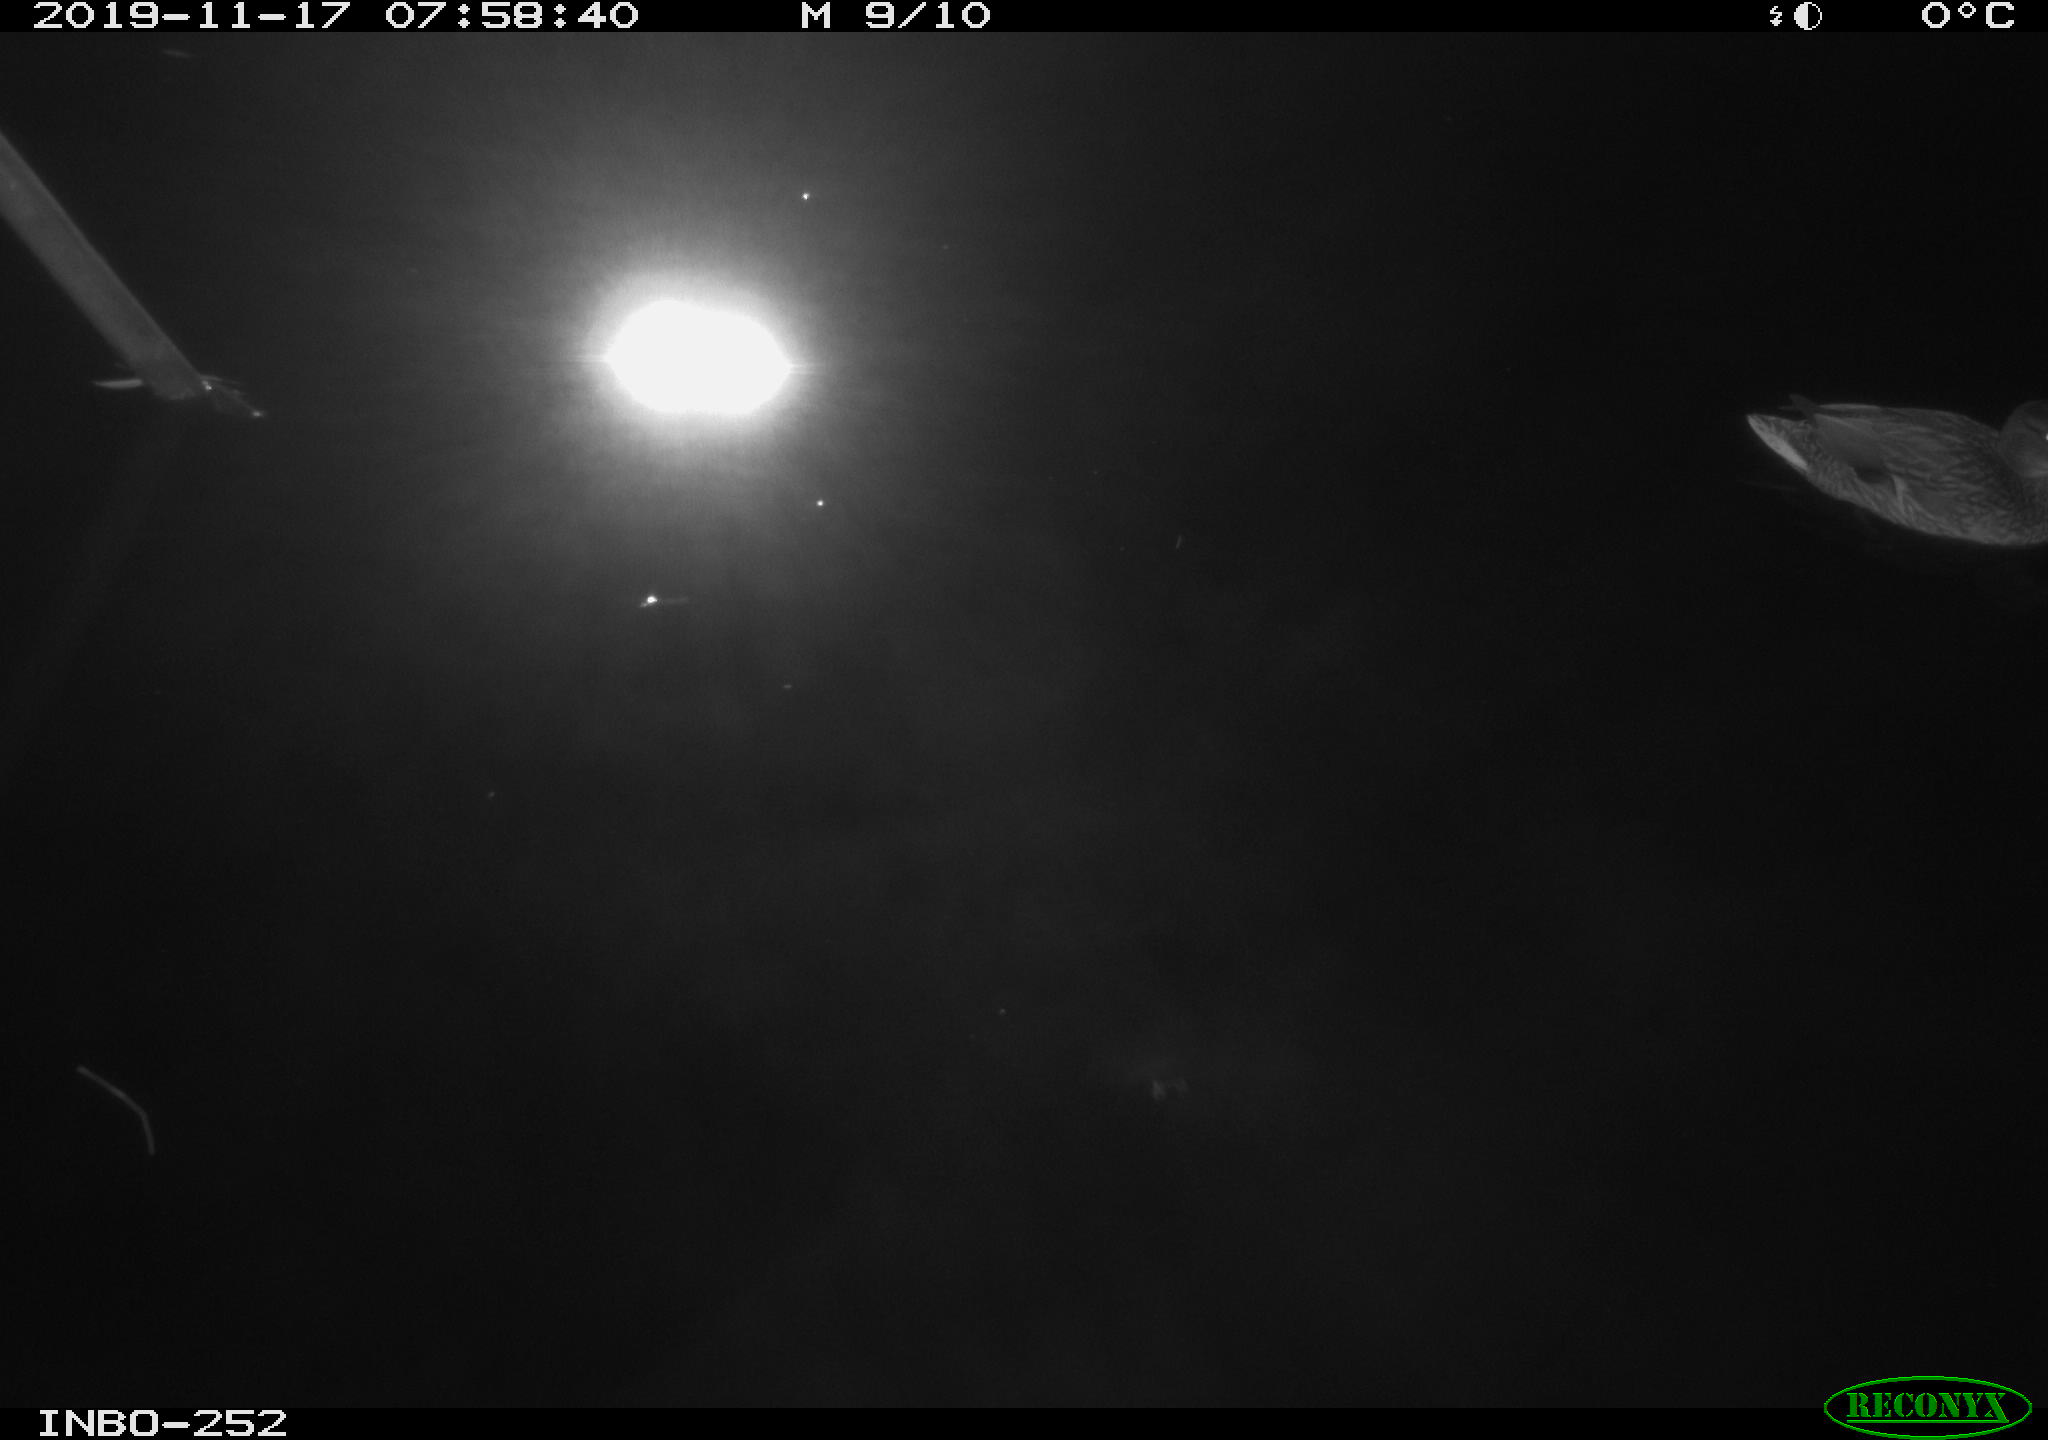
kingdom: Animalia
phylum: Chordata
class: Aves
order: Anseriformes
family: Anatidae
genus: Anas
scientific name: Anas platyrhynchos
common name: Mallard
